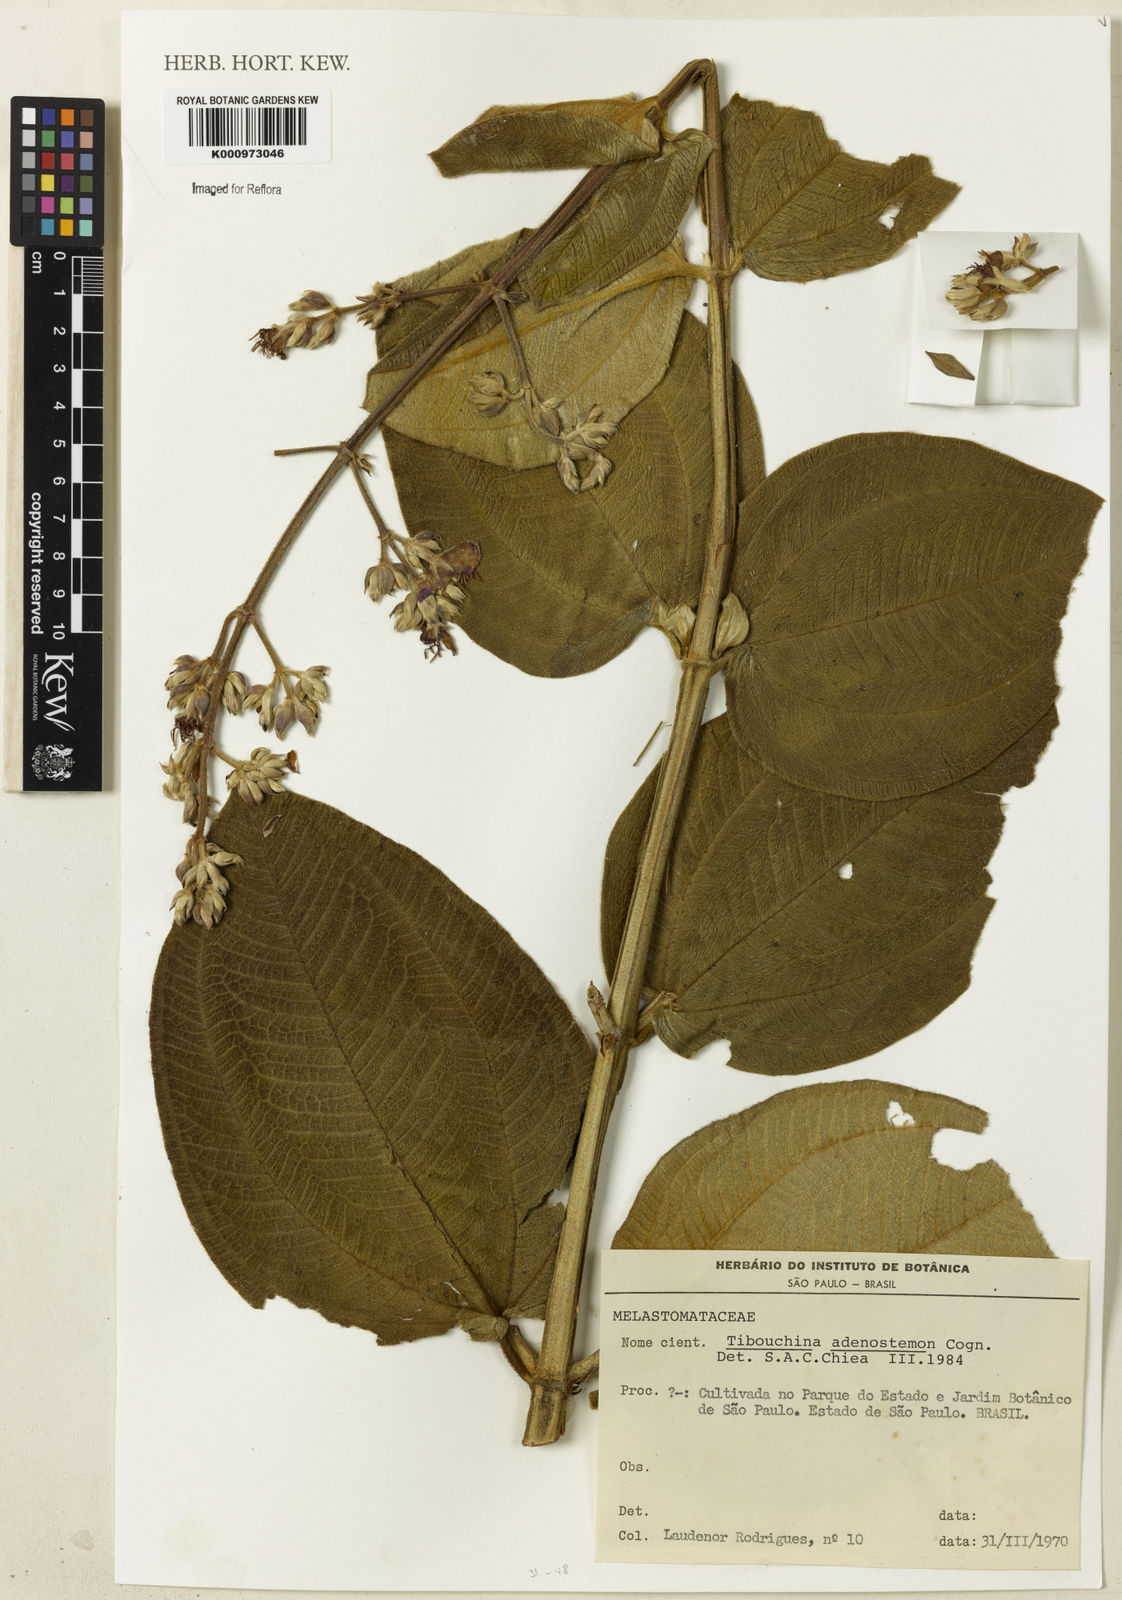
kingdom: Plantae
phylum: Tracheophyta
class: Magnoliopsida
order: Myrtales
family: Melastomataceae
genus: Pleroma
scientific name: Pleroma heteromallum
